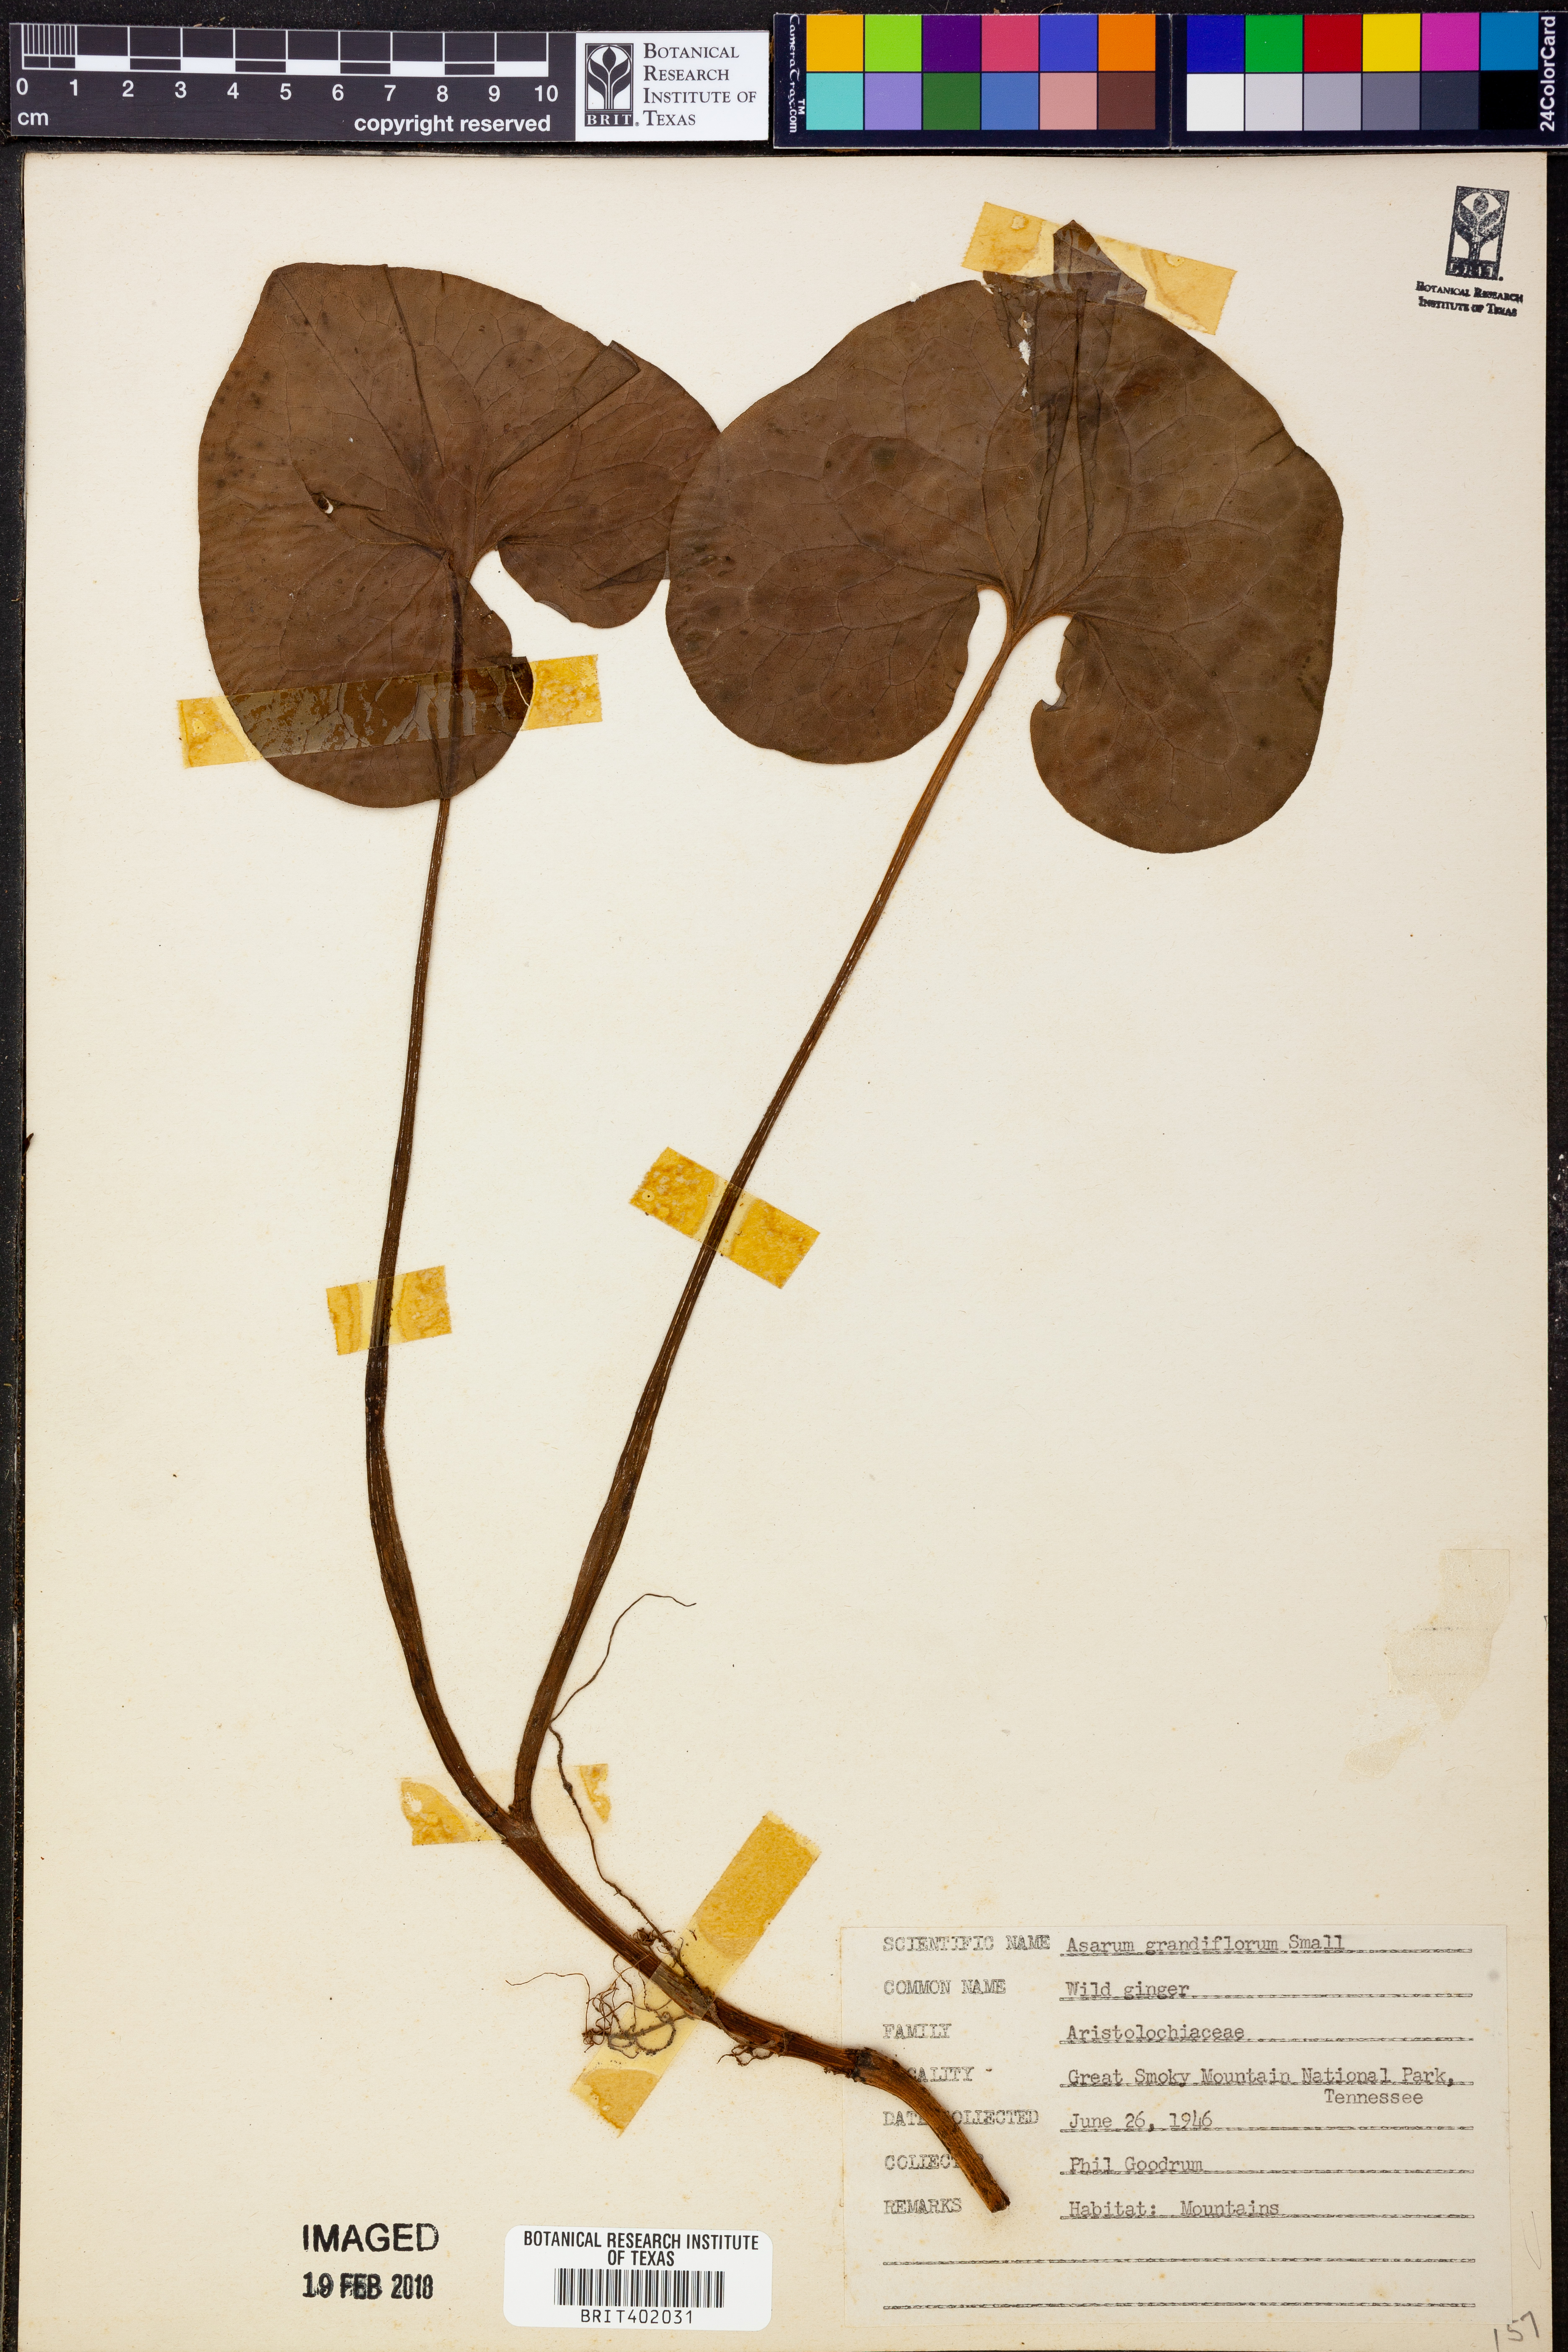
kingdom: Plantae
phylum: Tracheophyta
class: Magnoliopsida
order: Piperales
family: Aristolochiaceae
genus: Asarum
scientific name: Asarum hypogynum
